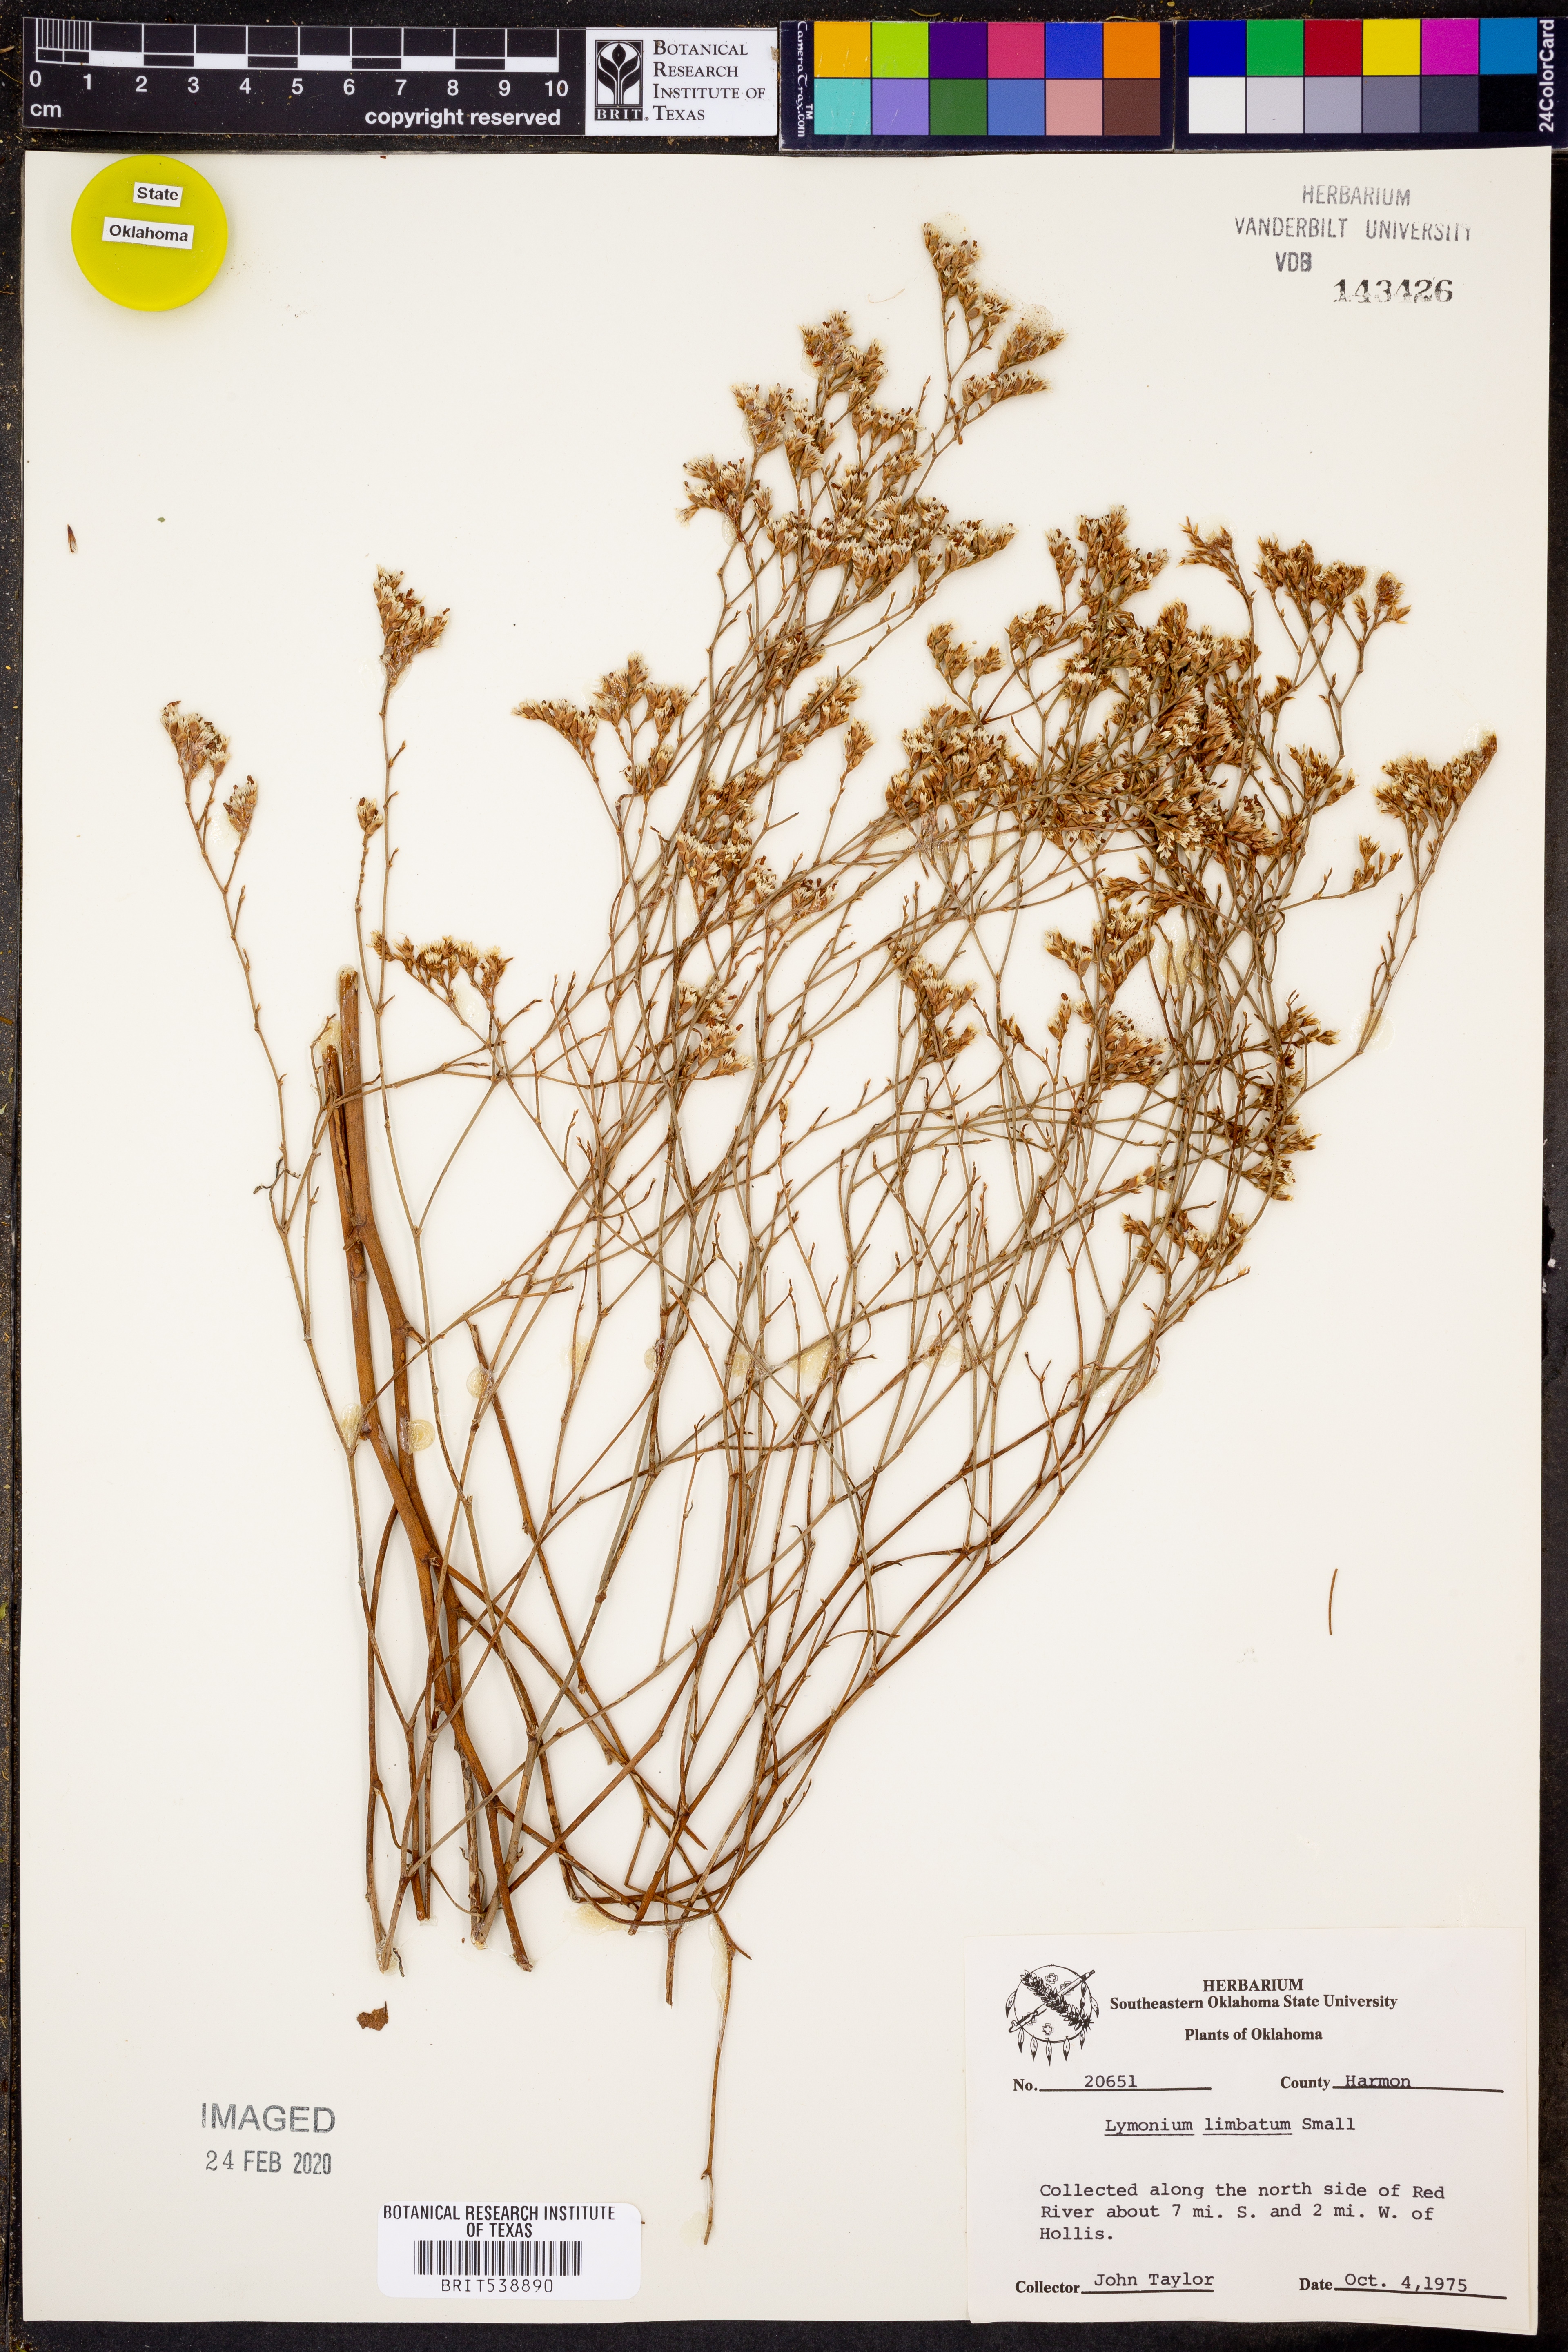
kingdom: Plantae
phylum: Tracheophyta
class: Magnoliopsida
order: Caryophyllales
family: Plumbaginaceae
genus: Limonium
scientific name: Limonium limbatum
